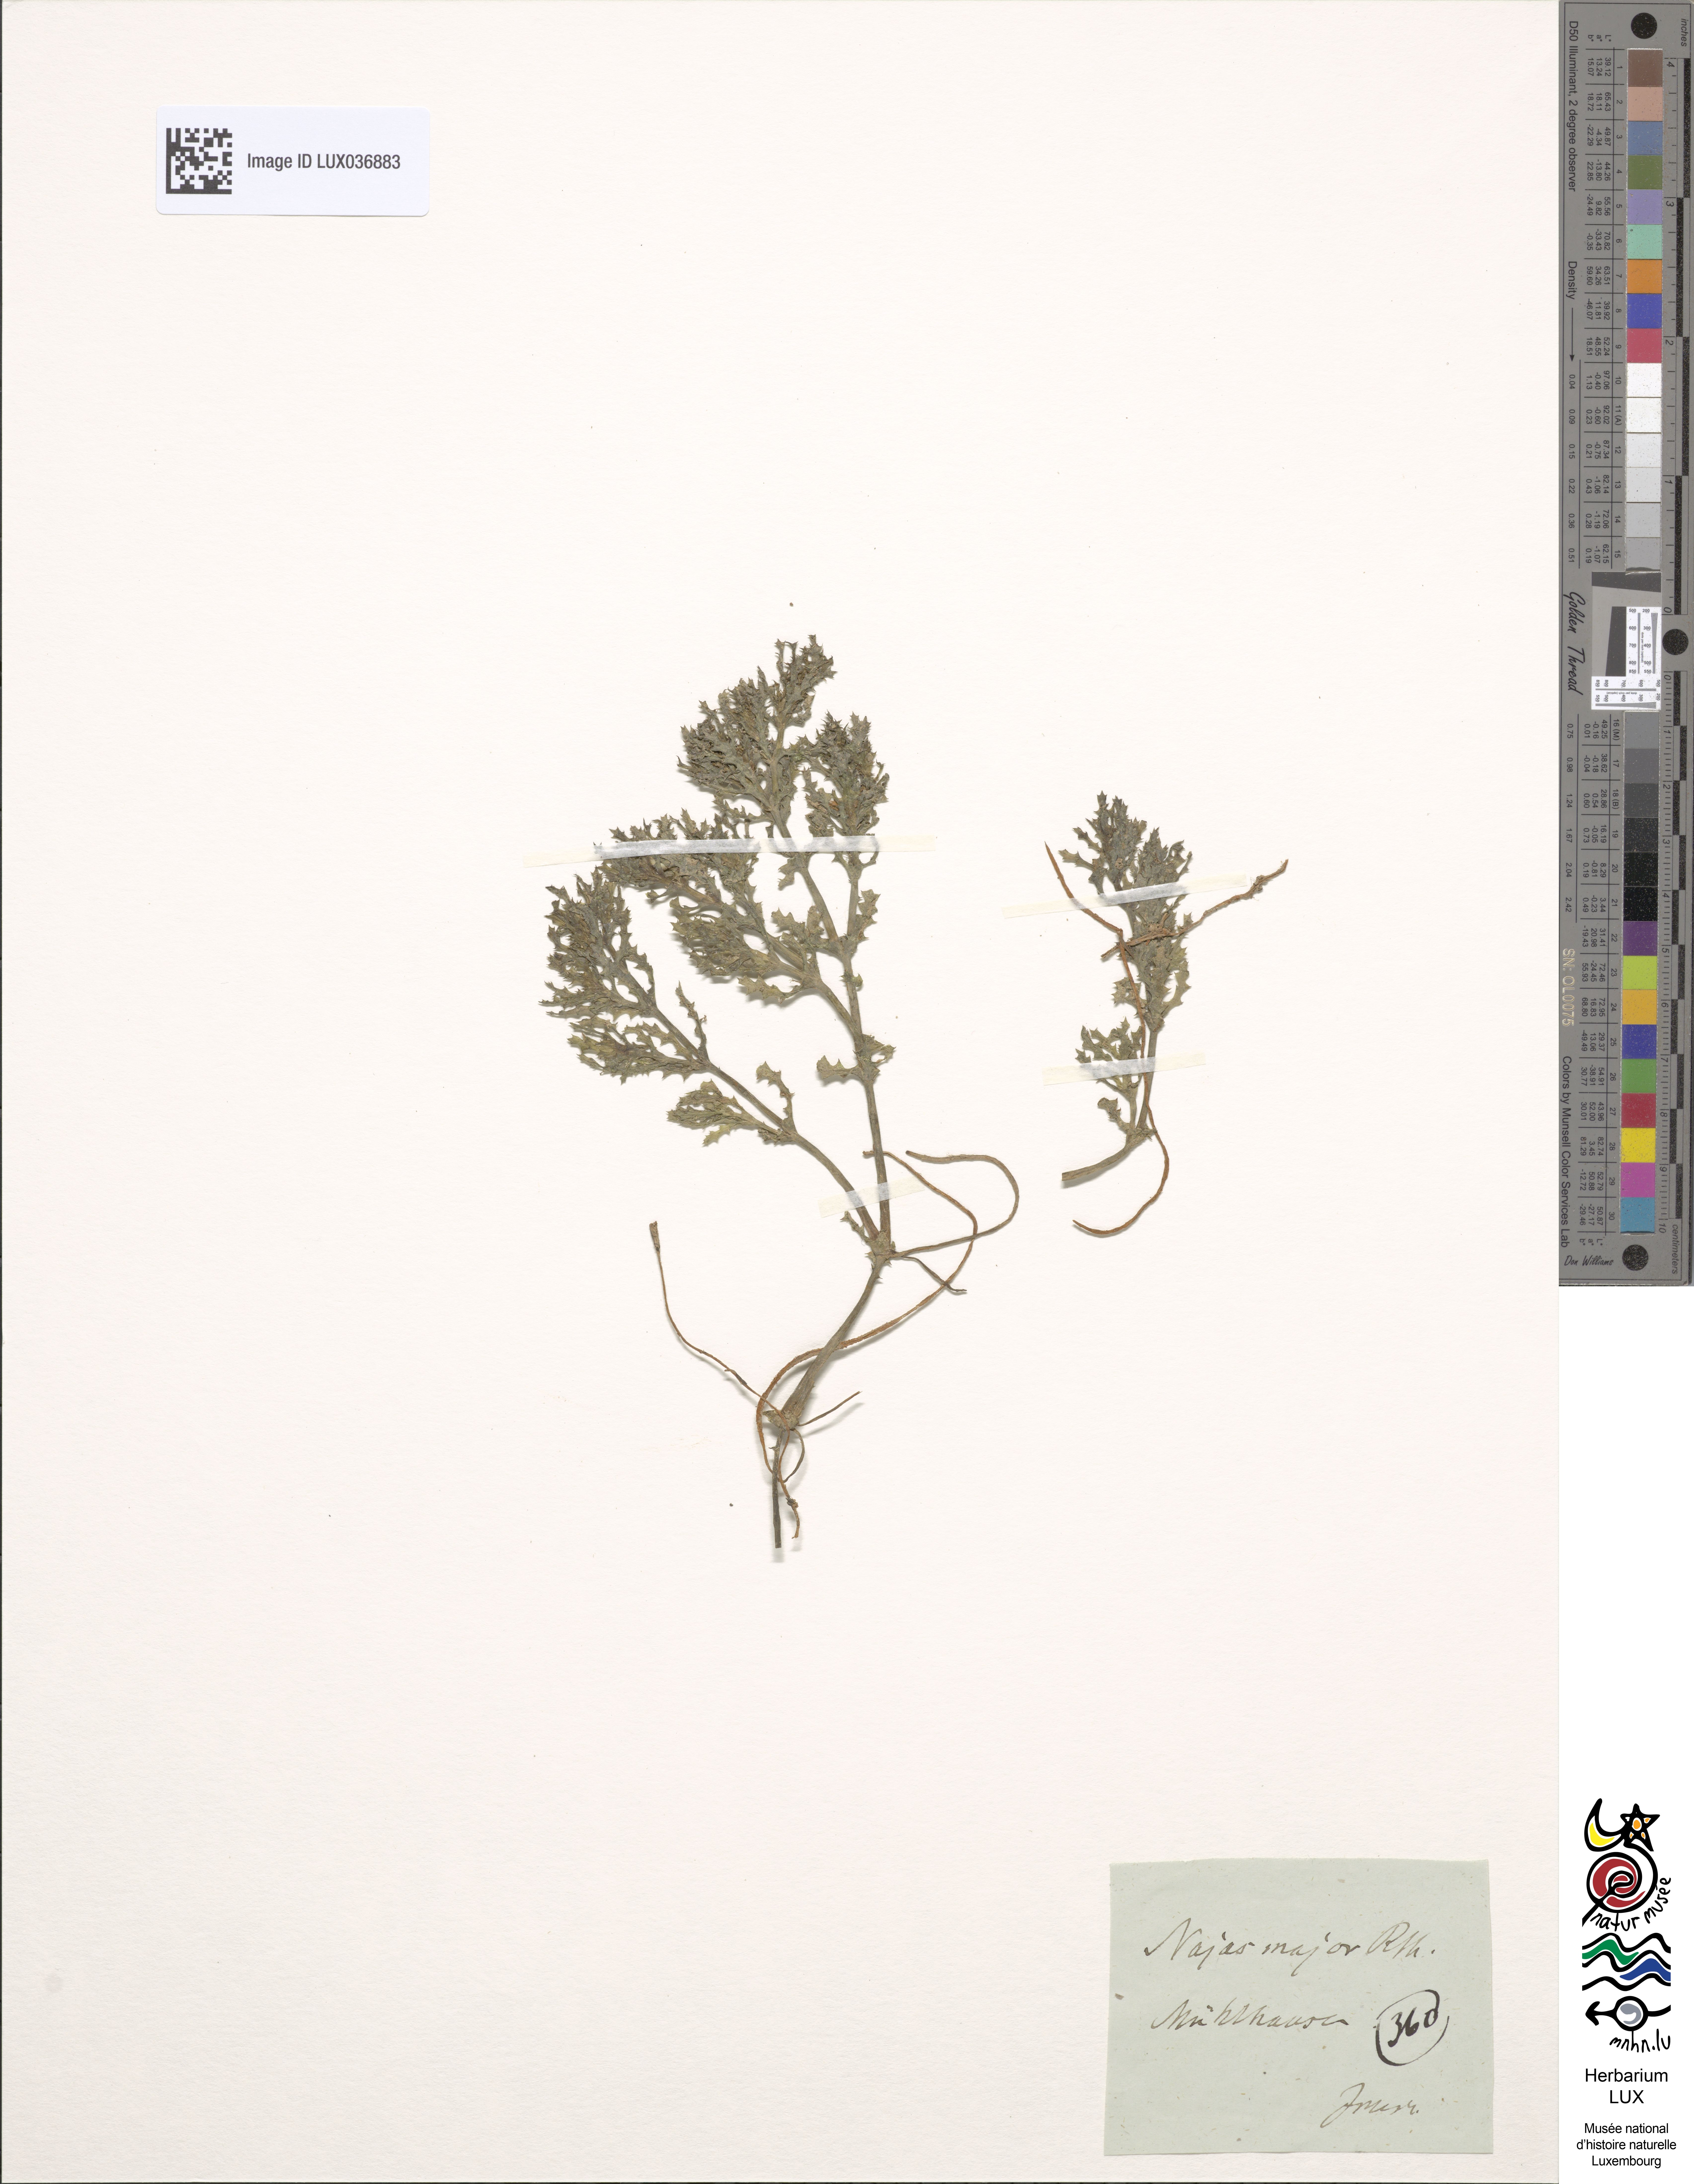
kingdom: Plantae
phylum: Tracheophyta
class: Liliopsida
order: Alismatales
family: Hydrocharitaceae
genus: Najas
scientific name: Najas marina
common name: Holly-leaved naiad
